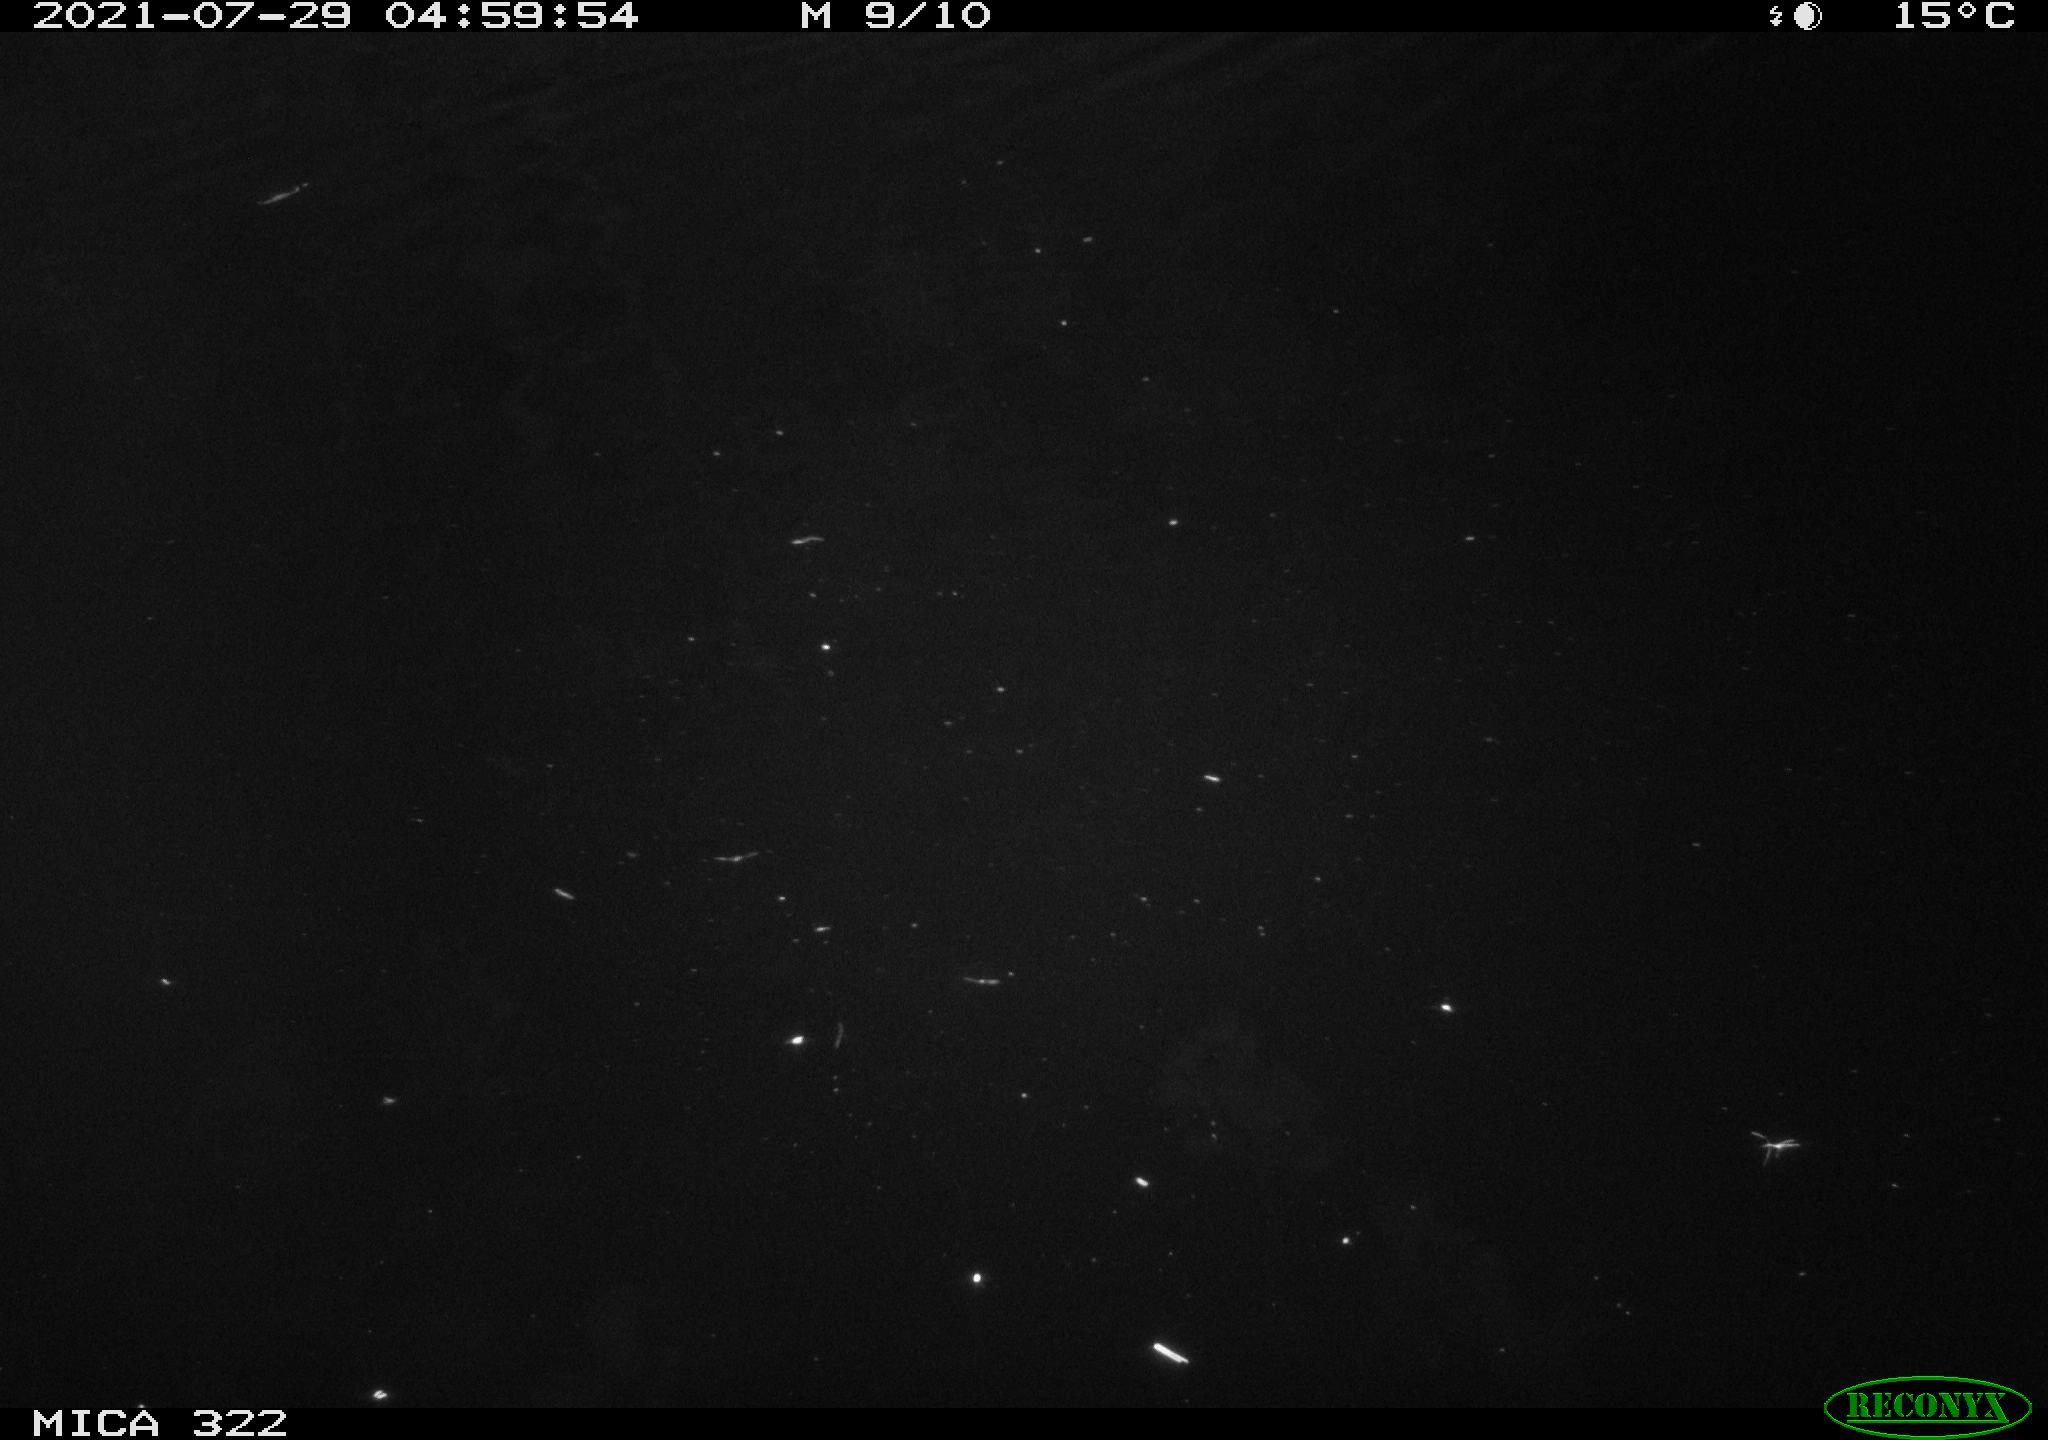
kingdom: Animalia
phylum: Chordata
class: Mammalia
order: Rodentia
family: Muridae
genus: Rattus
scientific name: Rattus norvegicus
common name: Brown rat
